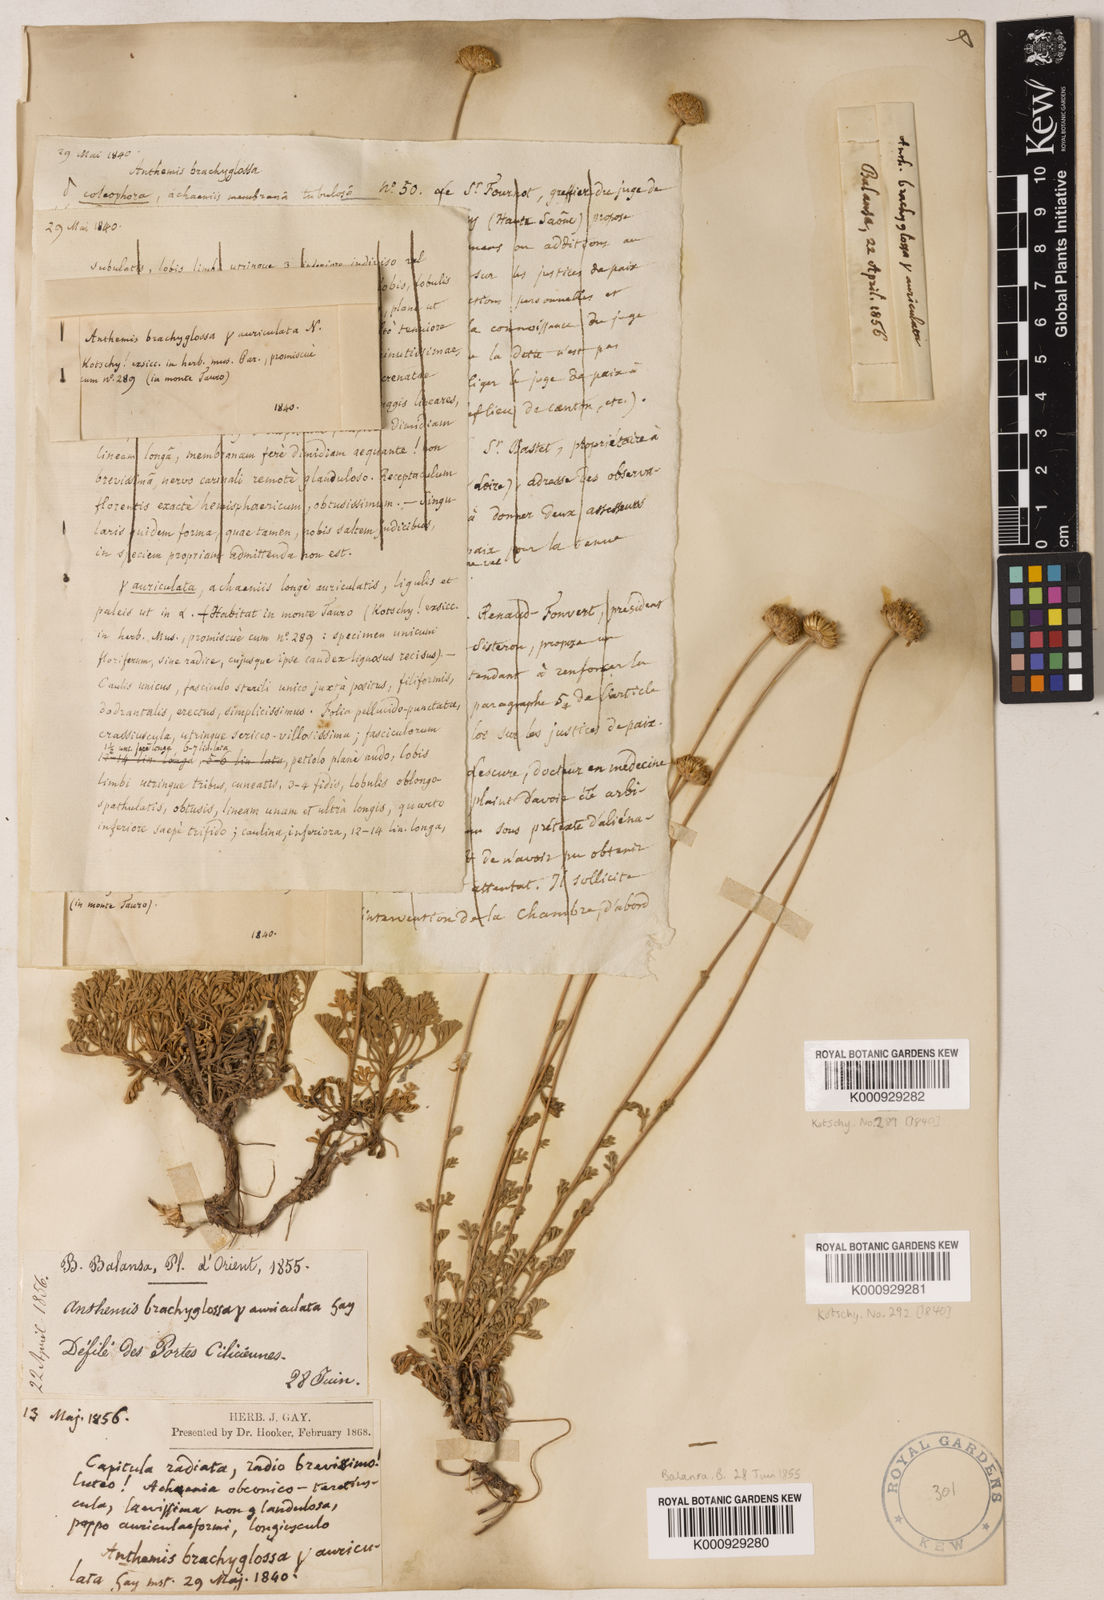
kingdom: Plantae
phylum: Tracheophyta
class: Magnoliopsida
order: Asterales
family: Asteraceae
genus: Anthemis
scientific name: Anthemis kotschyana
